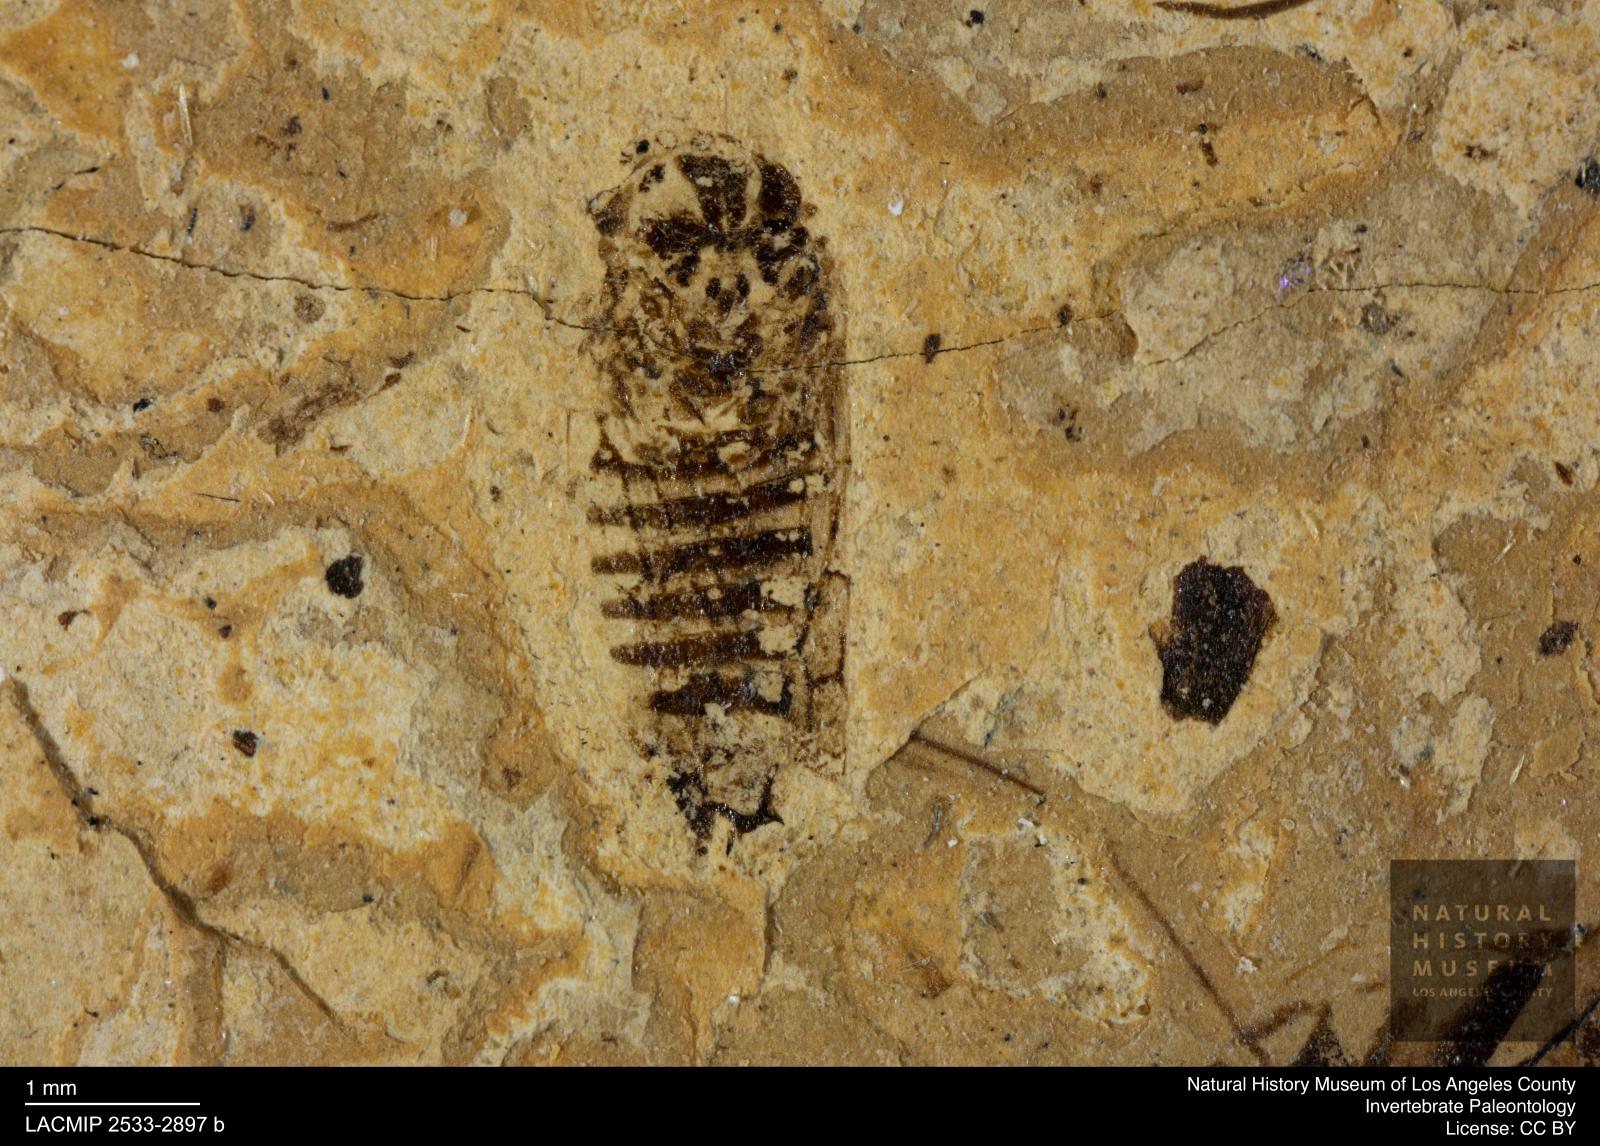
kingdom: Animalia
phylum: Arthropoda
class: Insecta
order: Hemiptera
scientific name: Hemiptera
